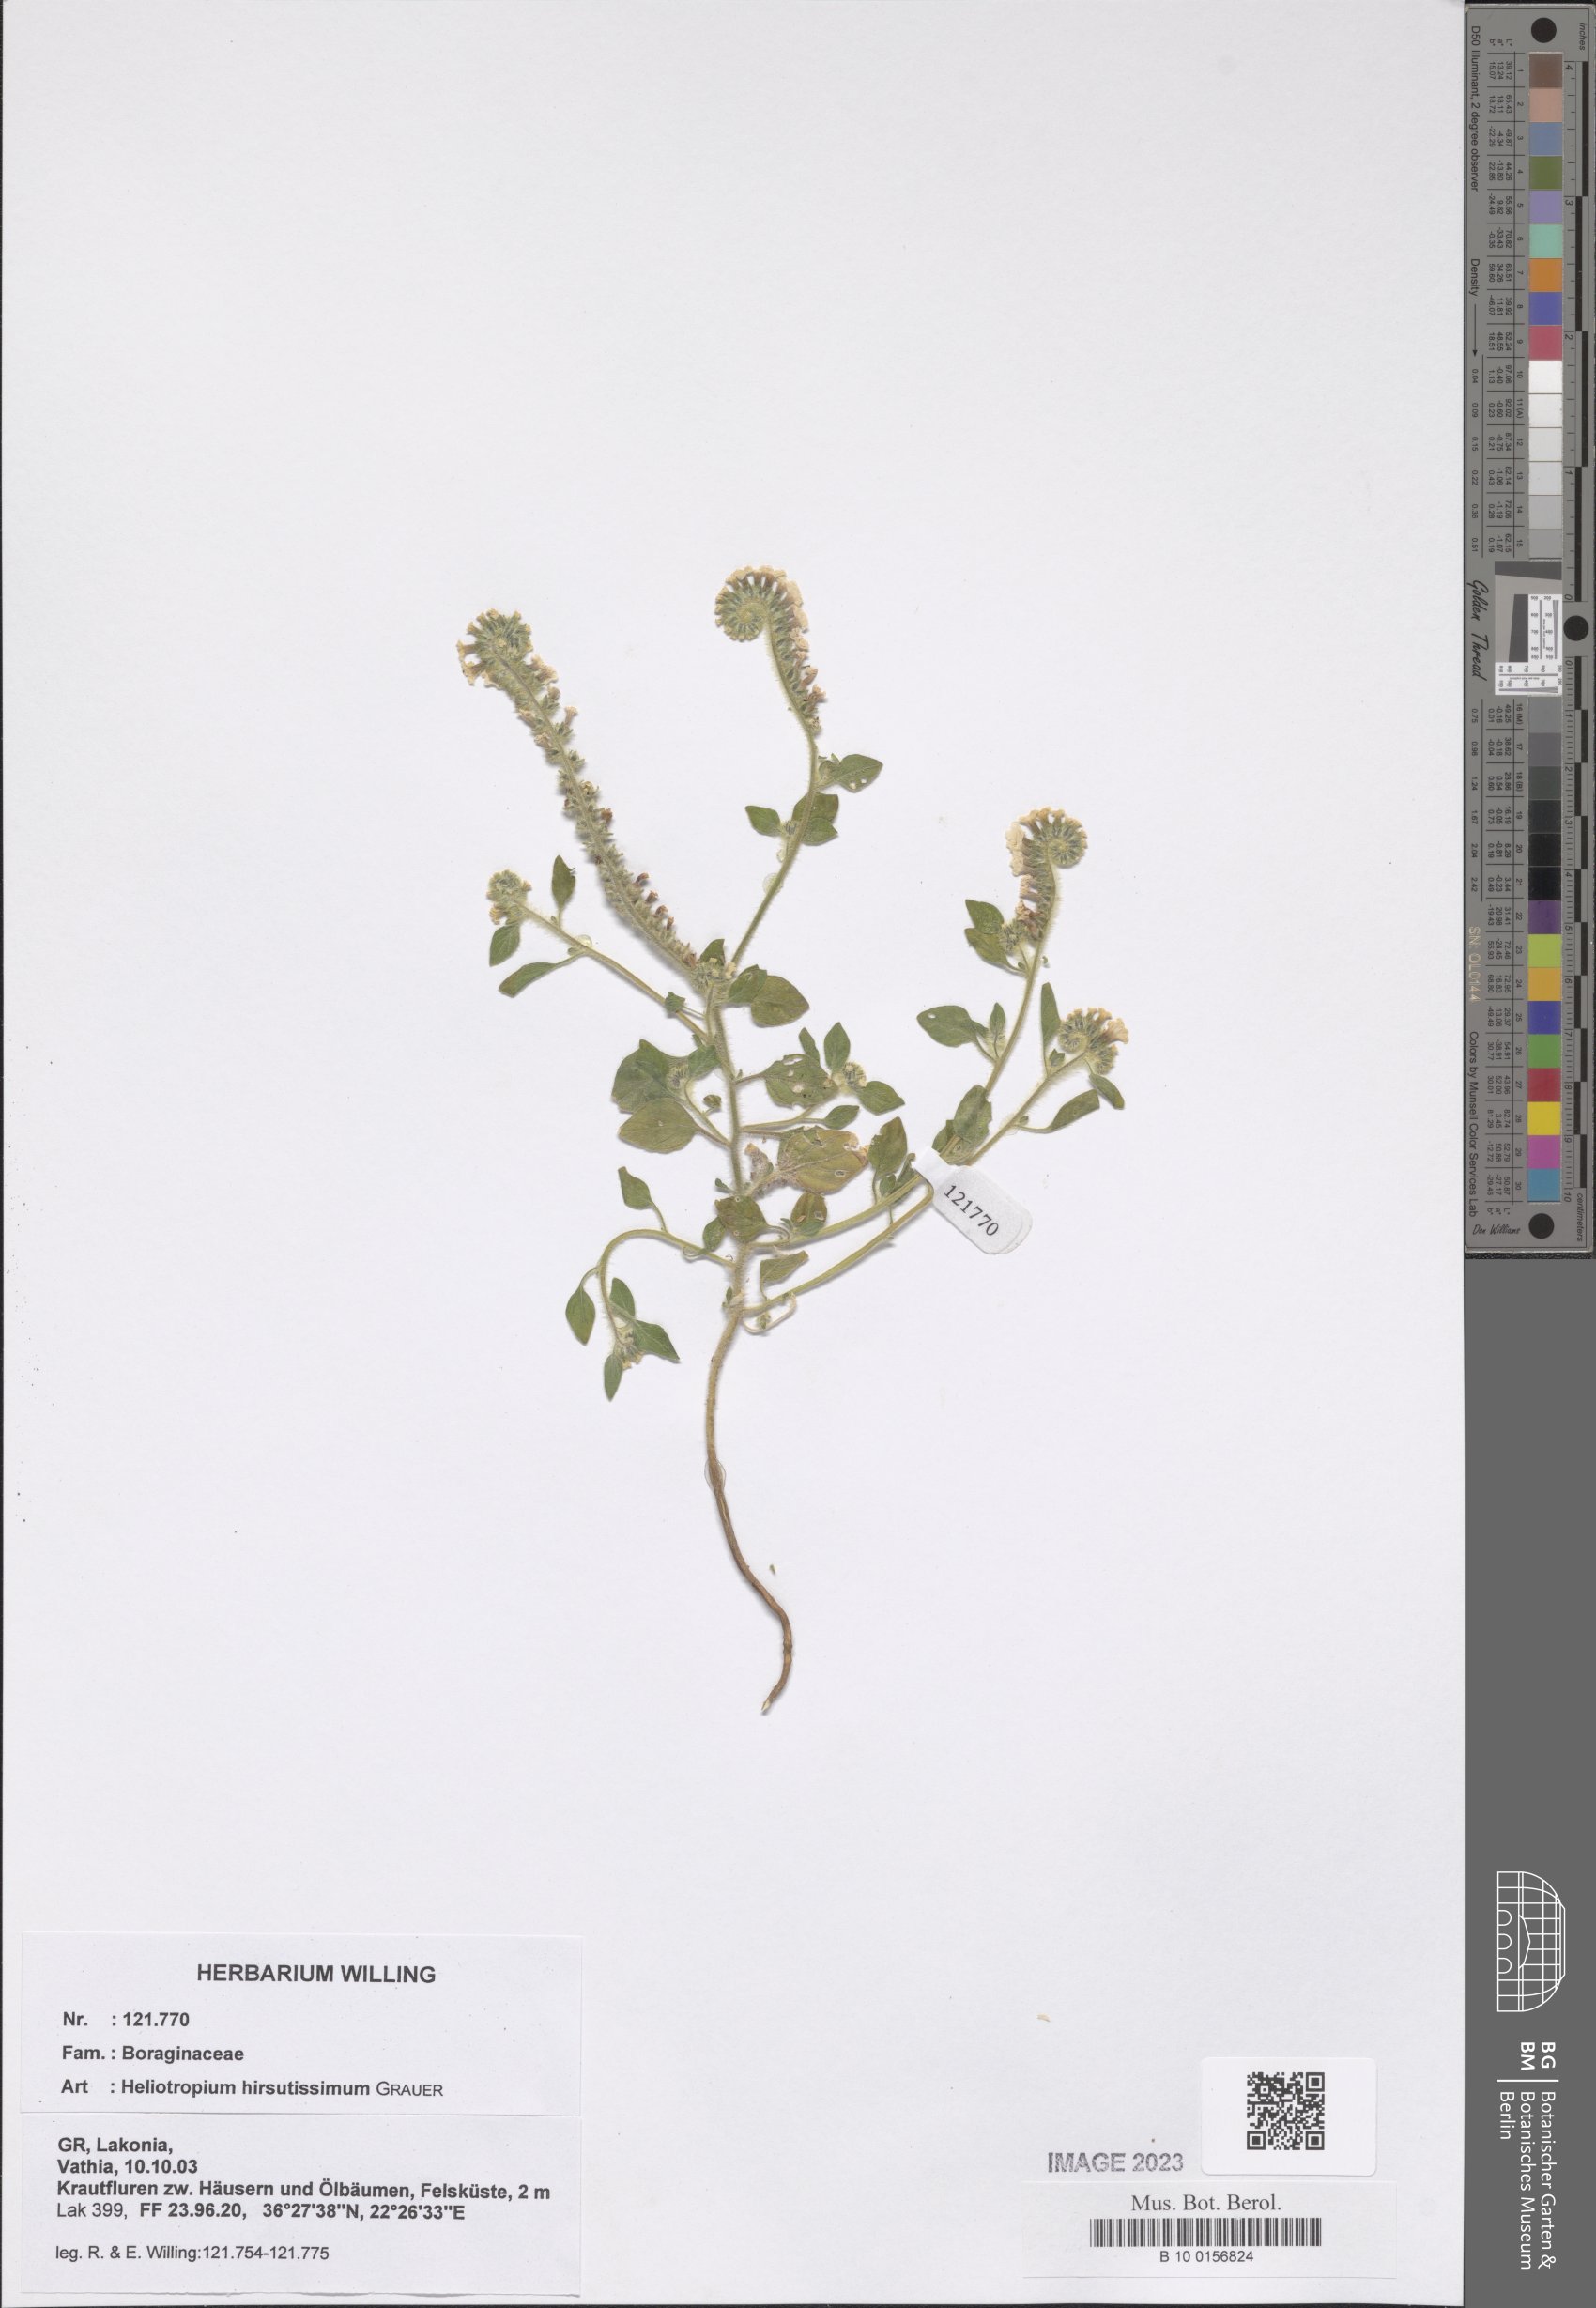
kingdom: Plantae
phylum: Tracheophyta
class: Magnoliopsida
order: Boraginales
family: Heliotropiaceae
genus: Heliotropium
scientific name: Heliotropium hirsutissimum
